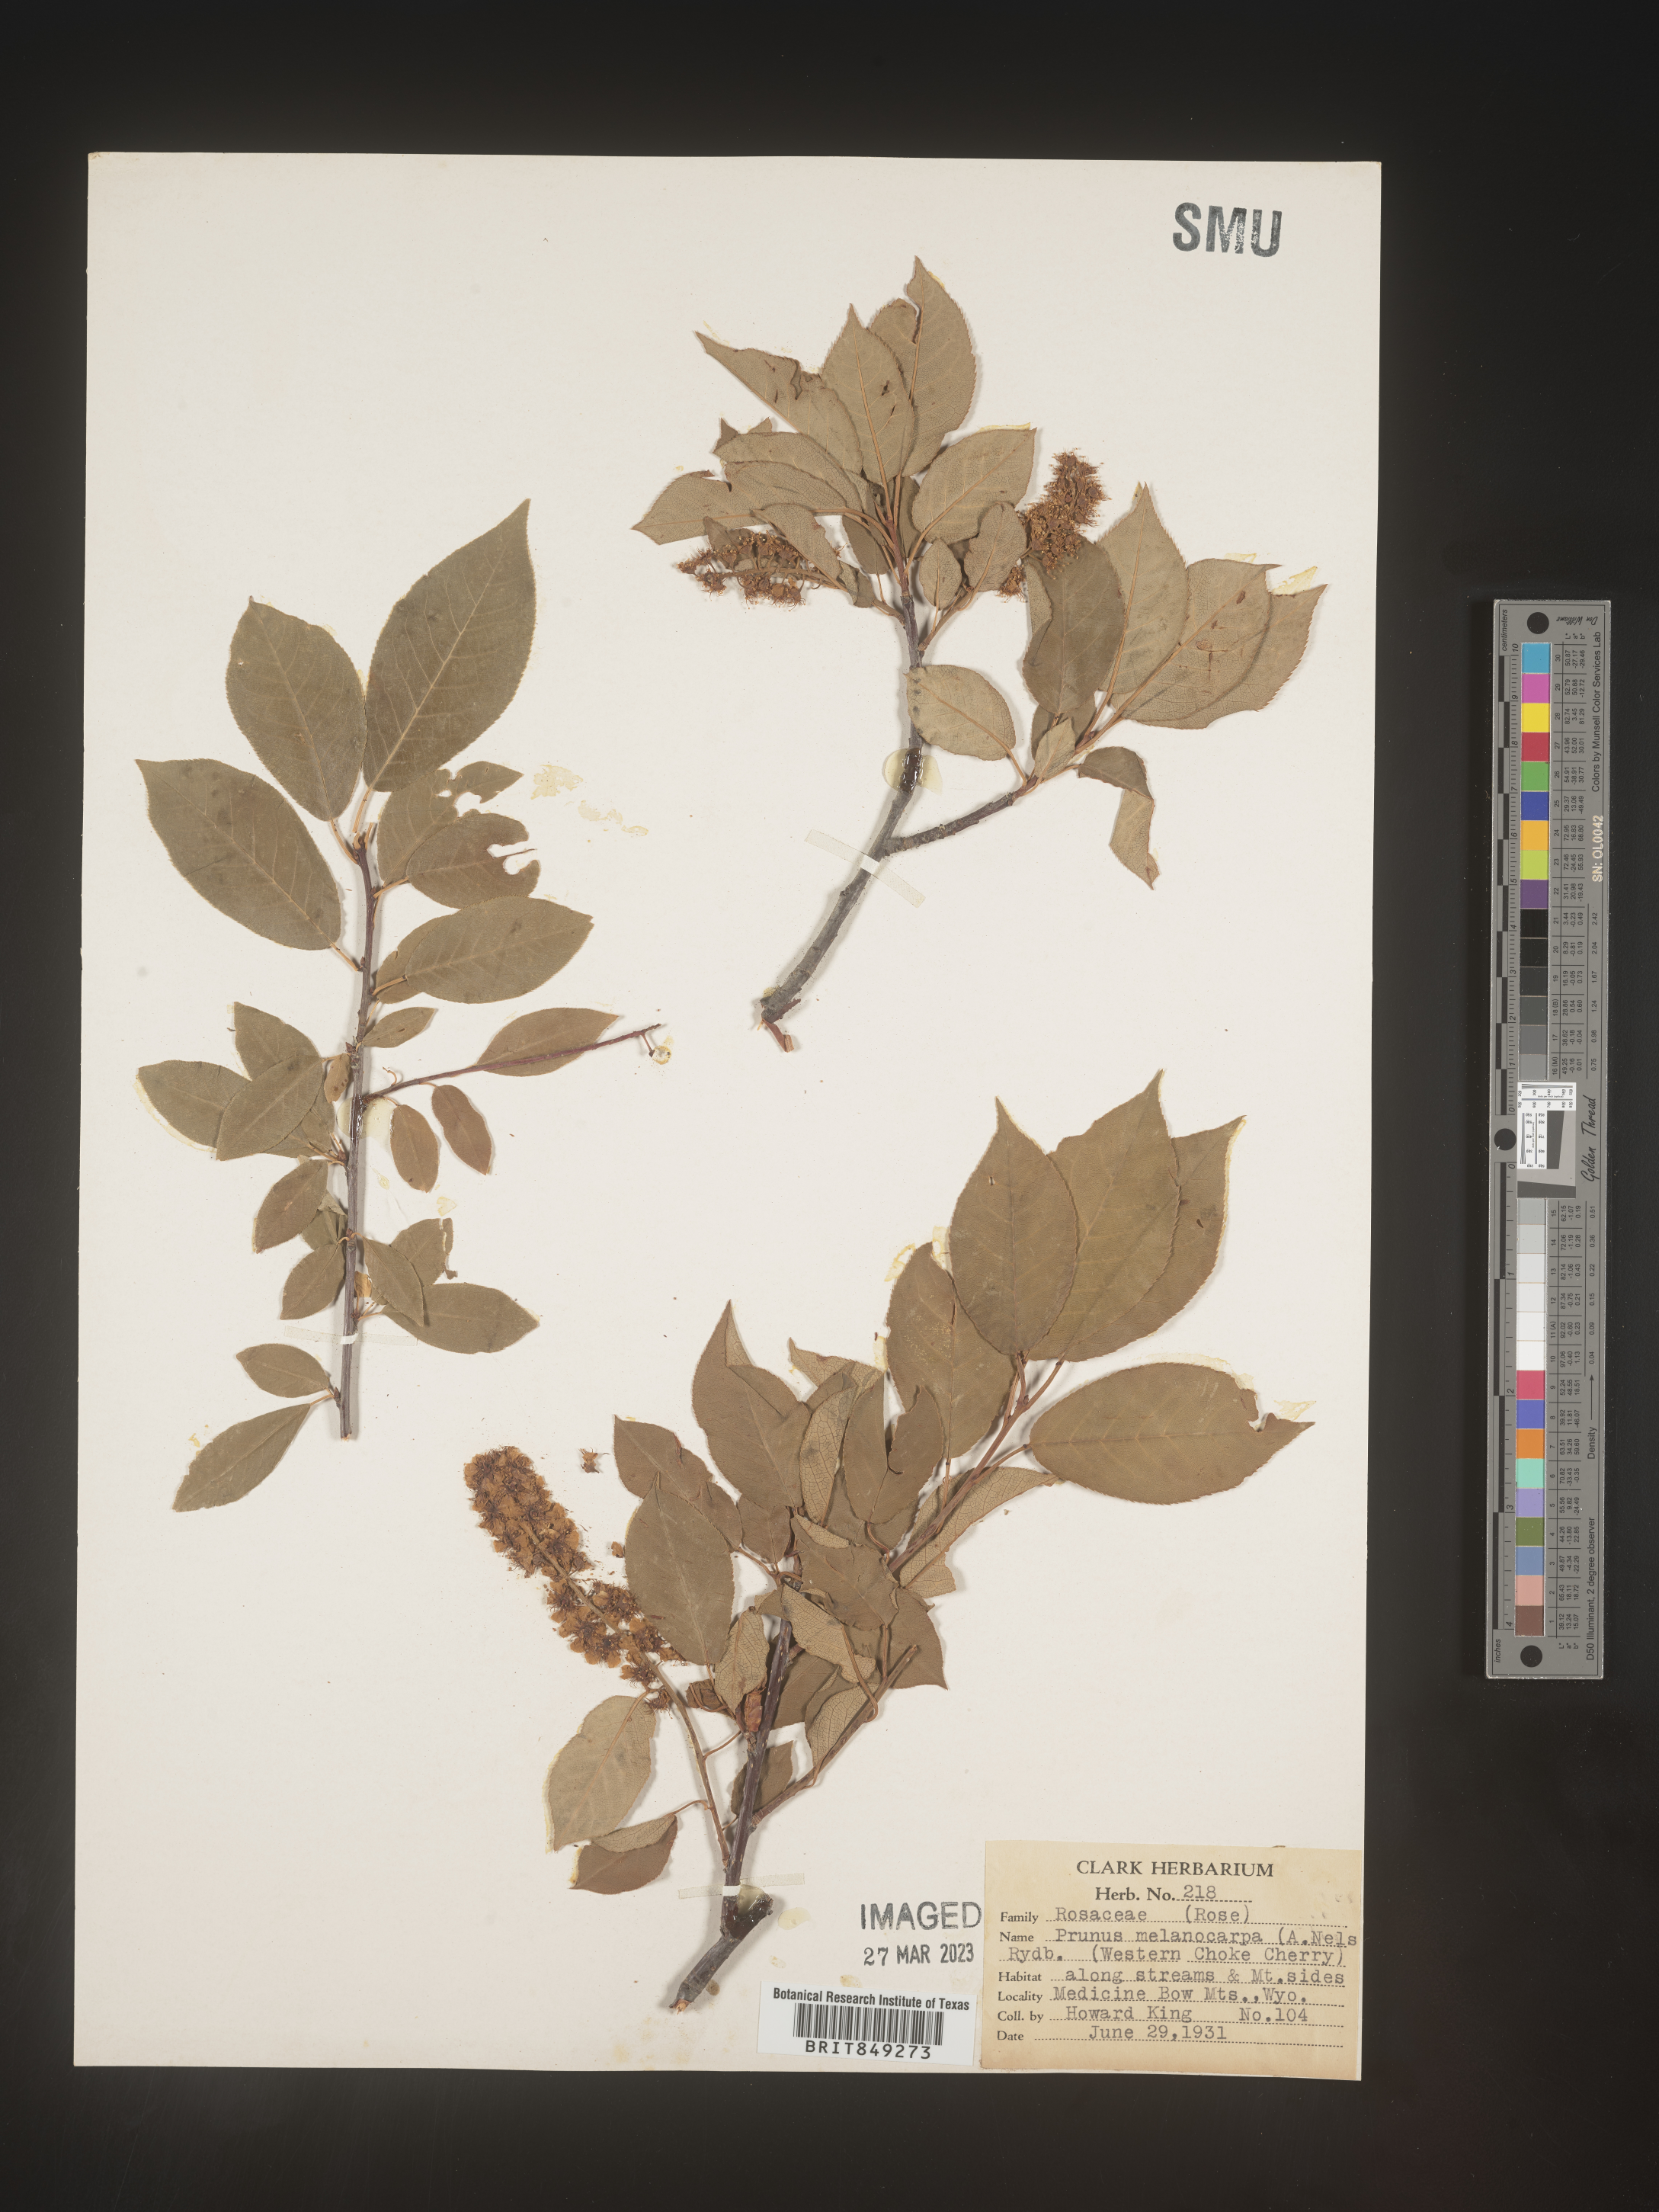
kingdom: Plantae
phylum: Tracheophyta
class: Magnoliopsida
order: Rosales
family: Rosaceae
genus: Prunus
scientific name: Prunus
